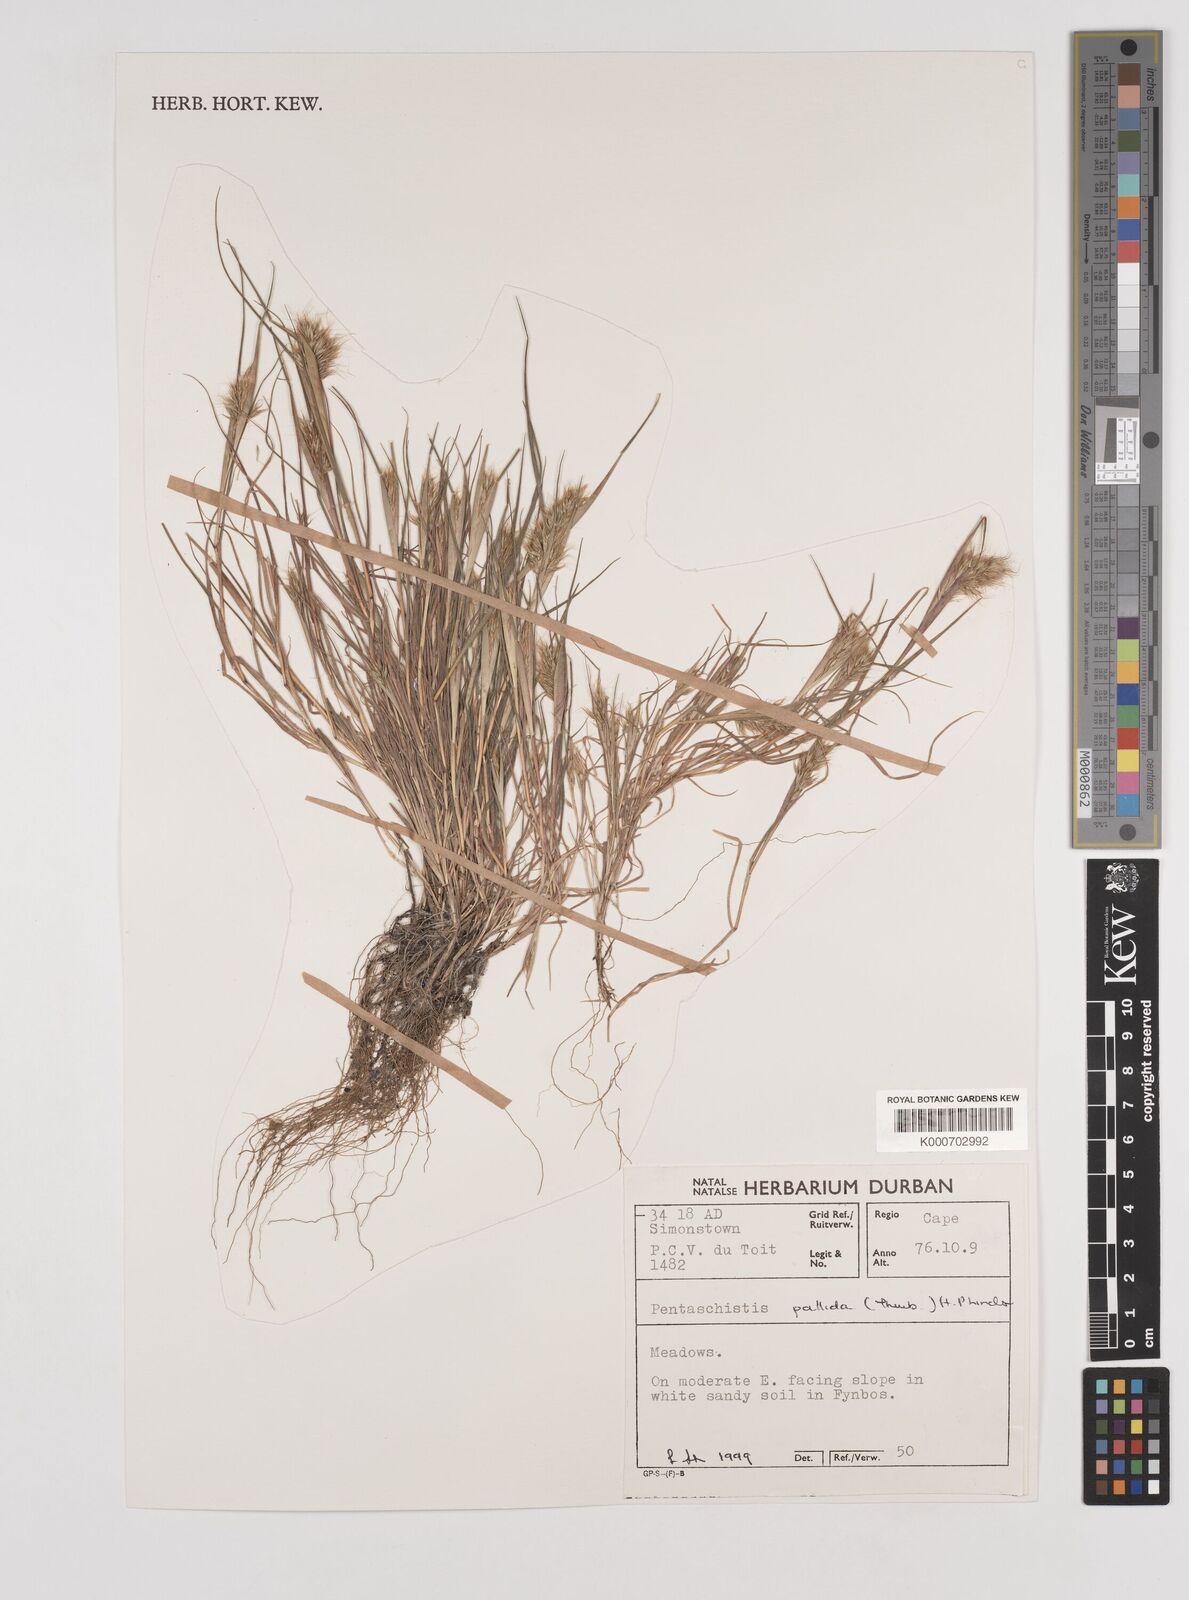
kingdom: Plantae
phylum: Tracheophyta
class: Liliopsida
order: Poales
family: Poaceae
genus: Pentameris
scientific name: Pentameris pallida
